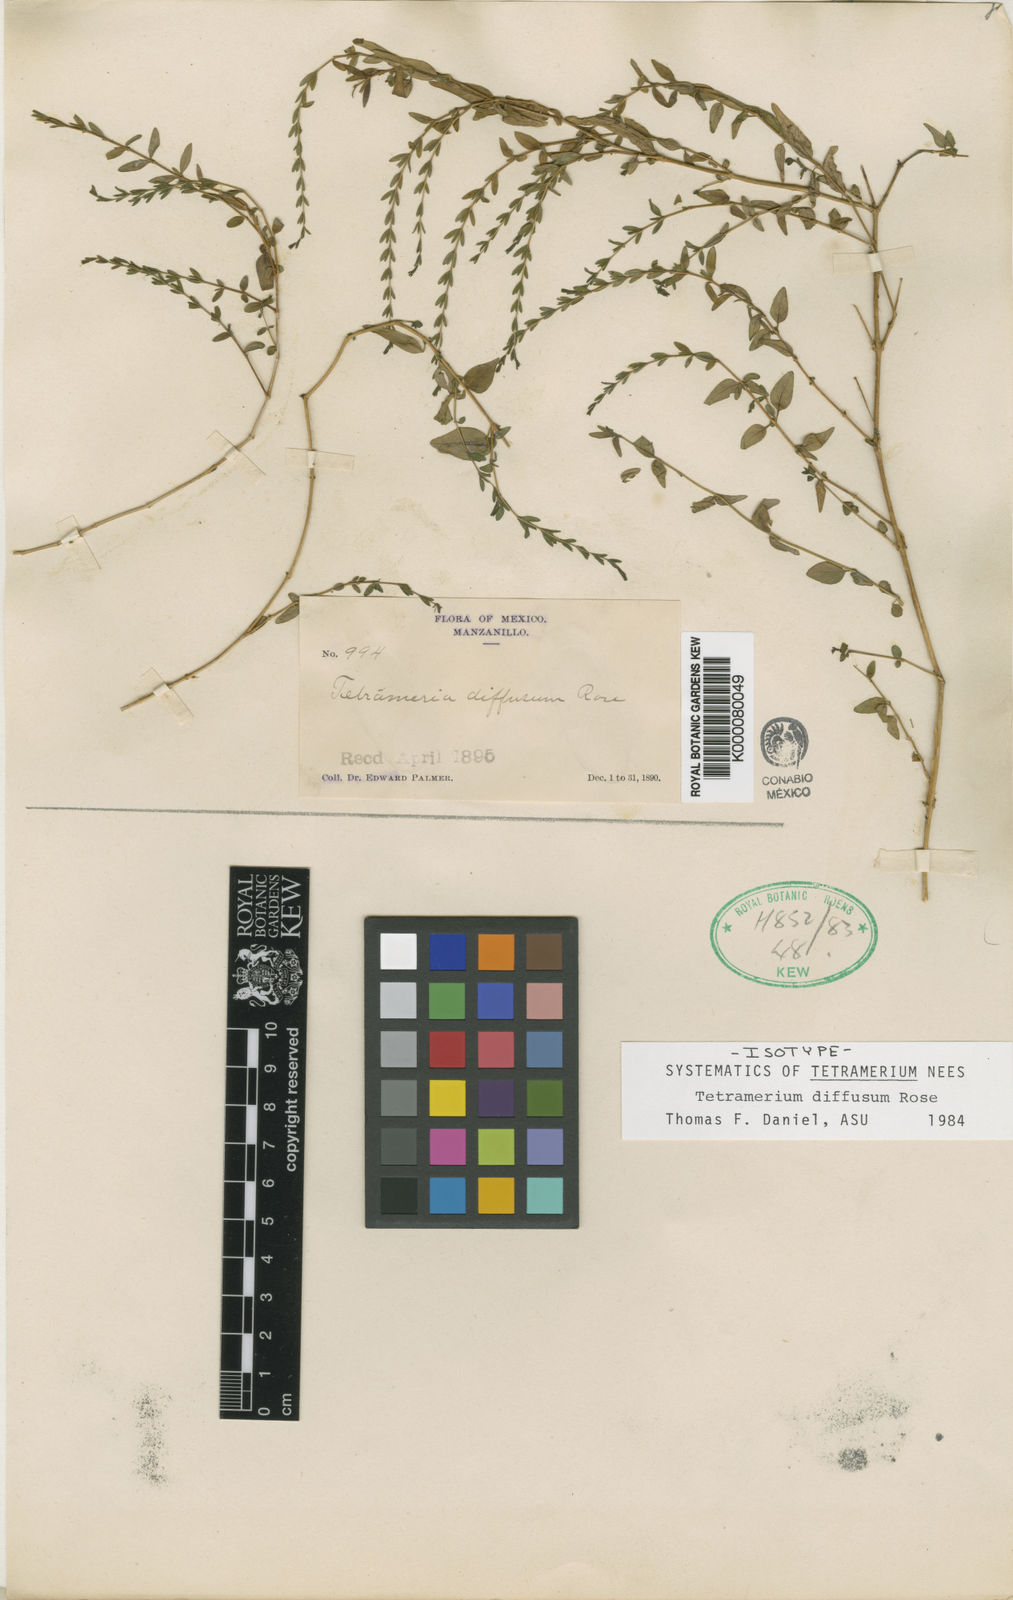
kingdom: Plantae
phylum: Tracheophyta
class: Magnoliopsida
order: Lamiales
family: Acanthaceae
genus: Tetramerium
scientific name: Tetramerium diffusum
